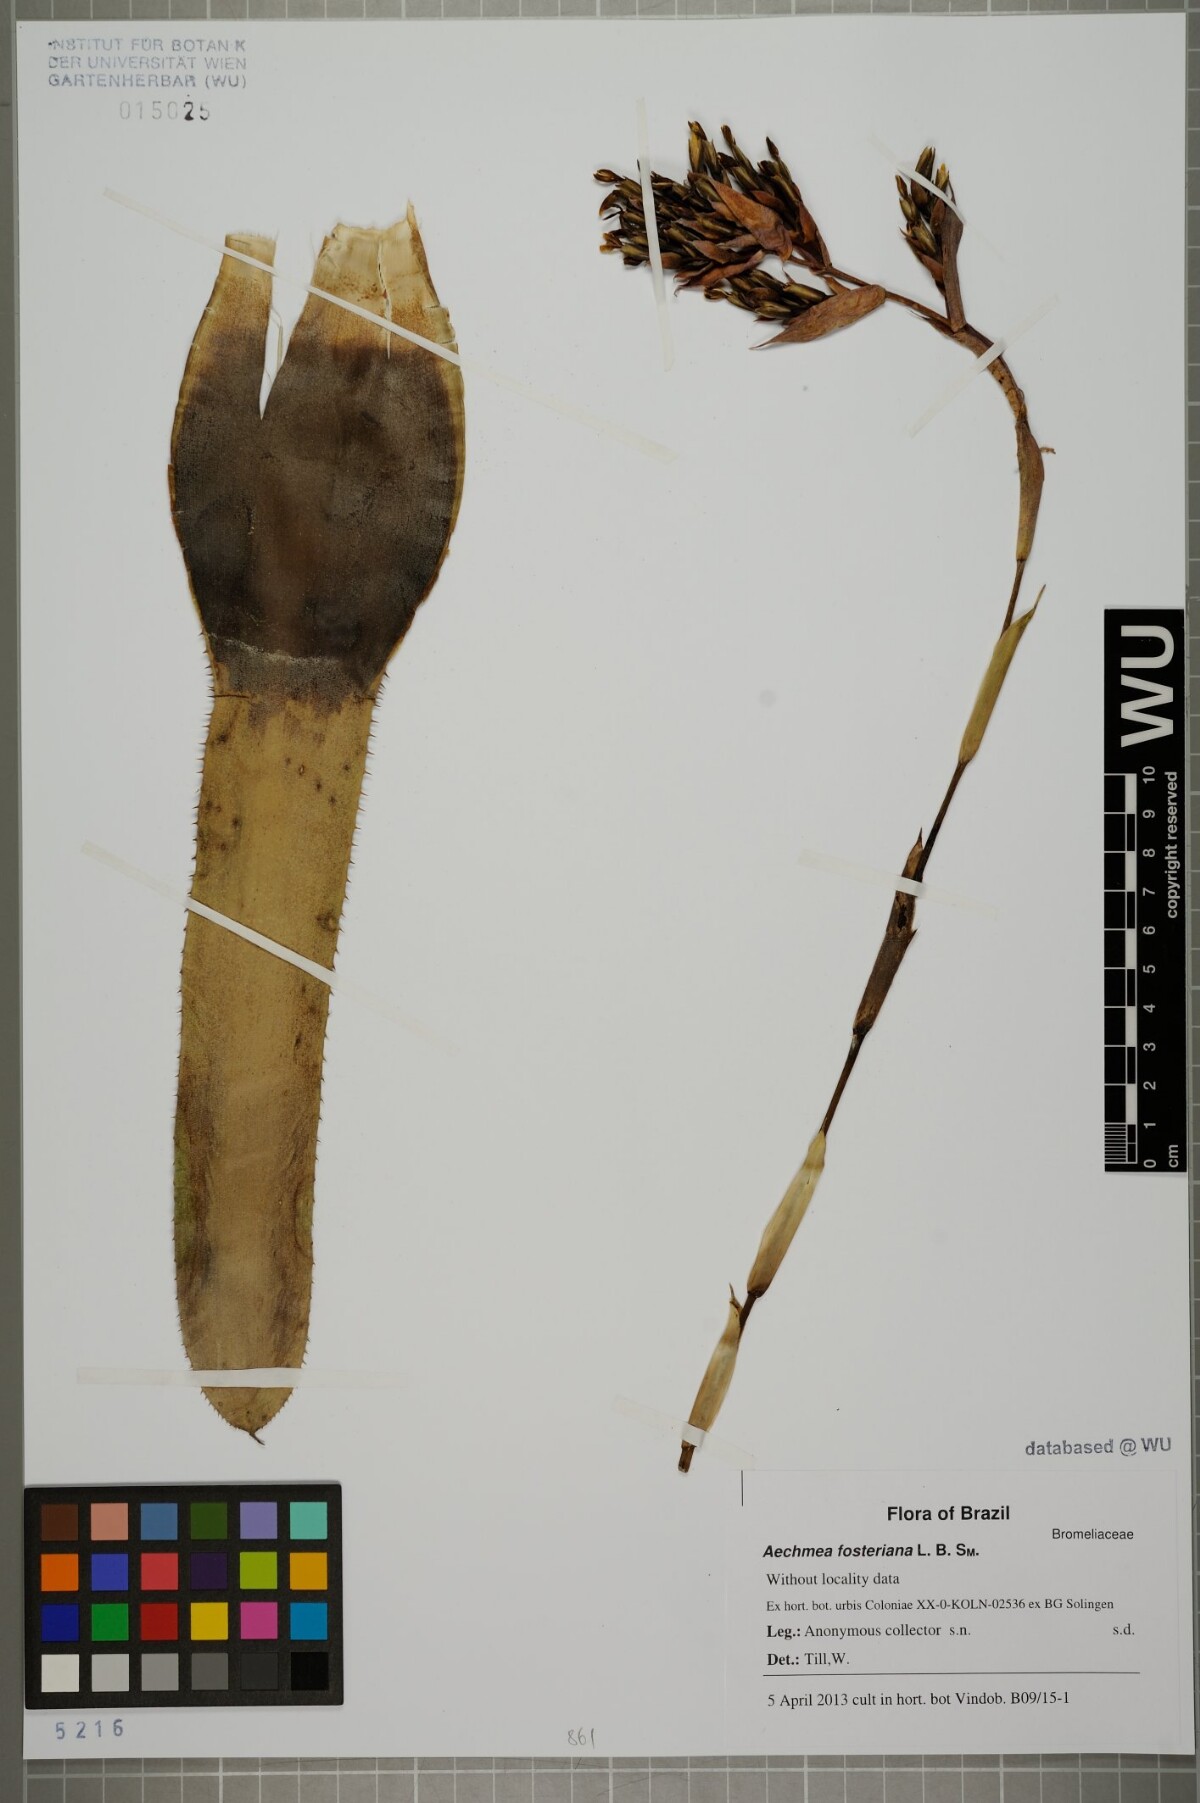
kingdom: Plantae
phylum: Tracheophyta
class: Liliopsida
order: Poales
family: Bromeliaceae
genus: Aechmea
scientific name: Aechmea fosteriana
